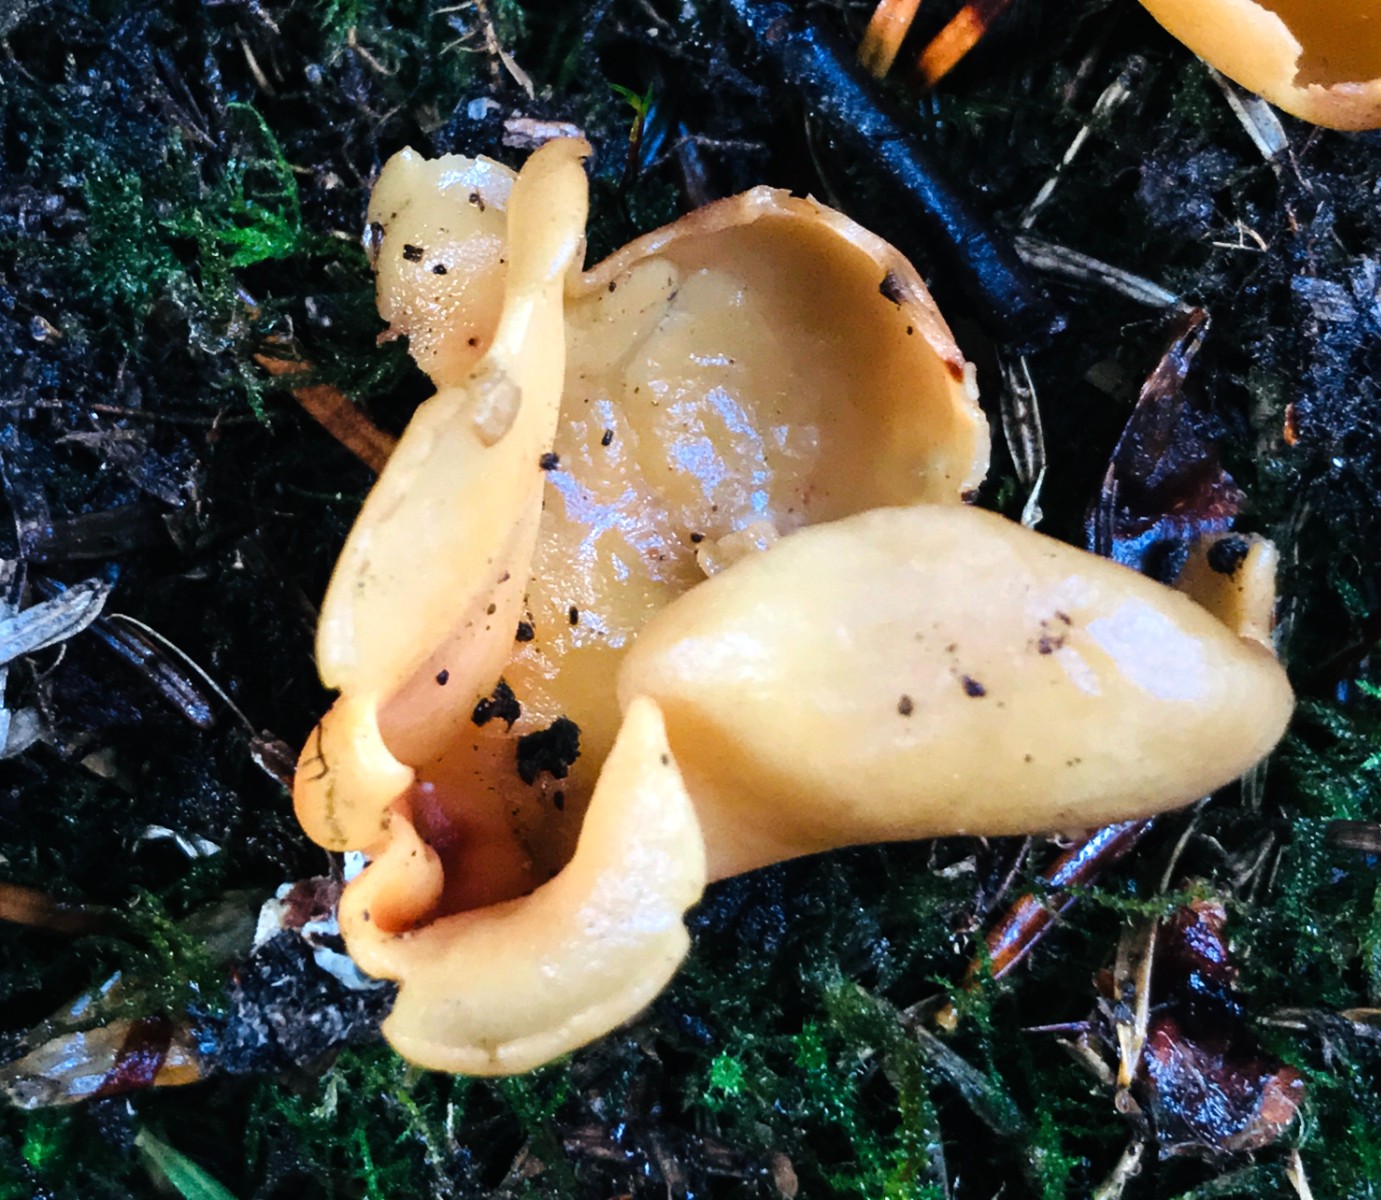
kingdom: Fungi
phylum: Ascomycota
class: Pezizomycetes
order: Pezizales
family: Otideaceae
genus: Otidea
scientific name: Otidea onotica
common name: æsel-ørebæger
